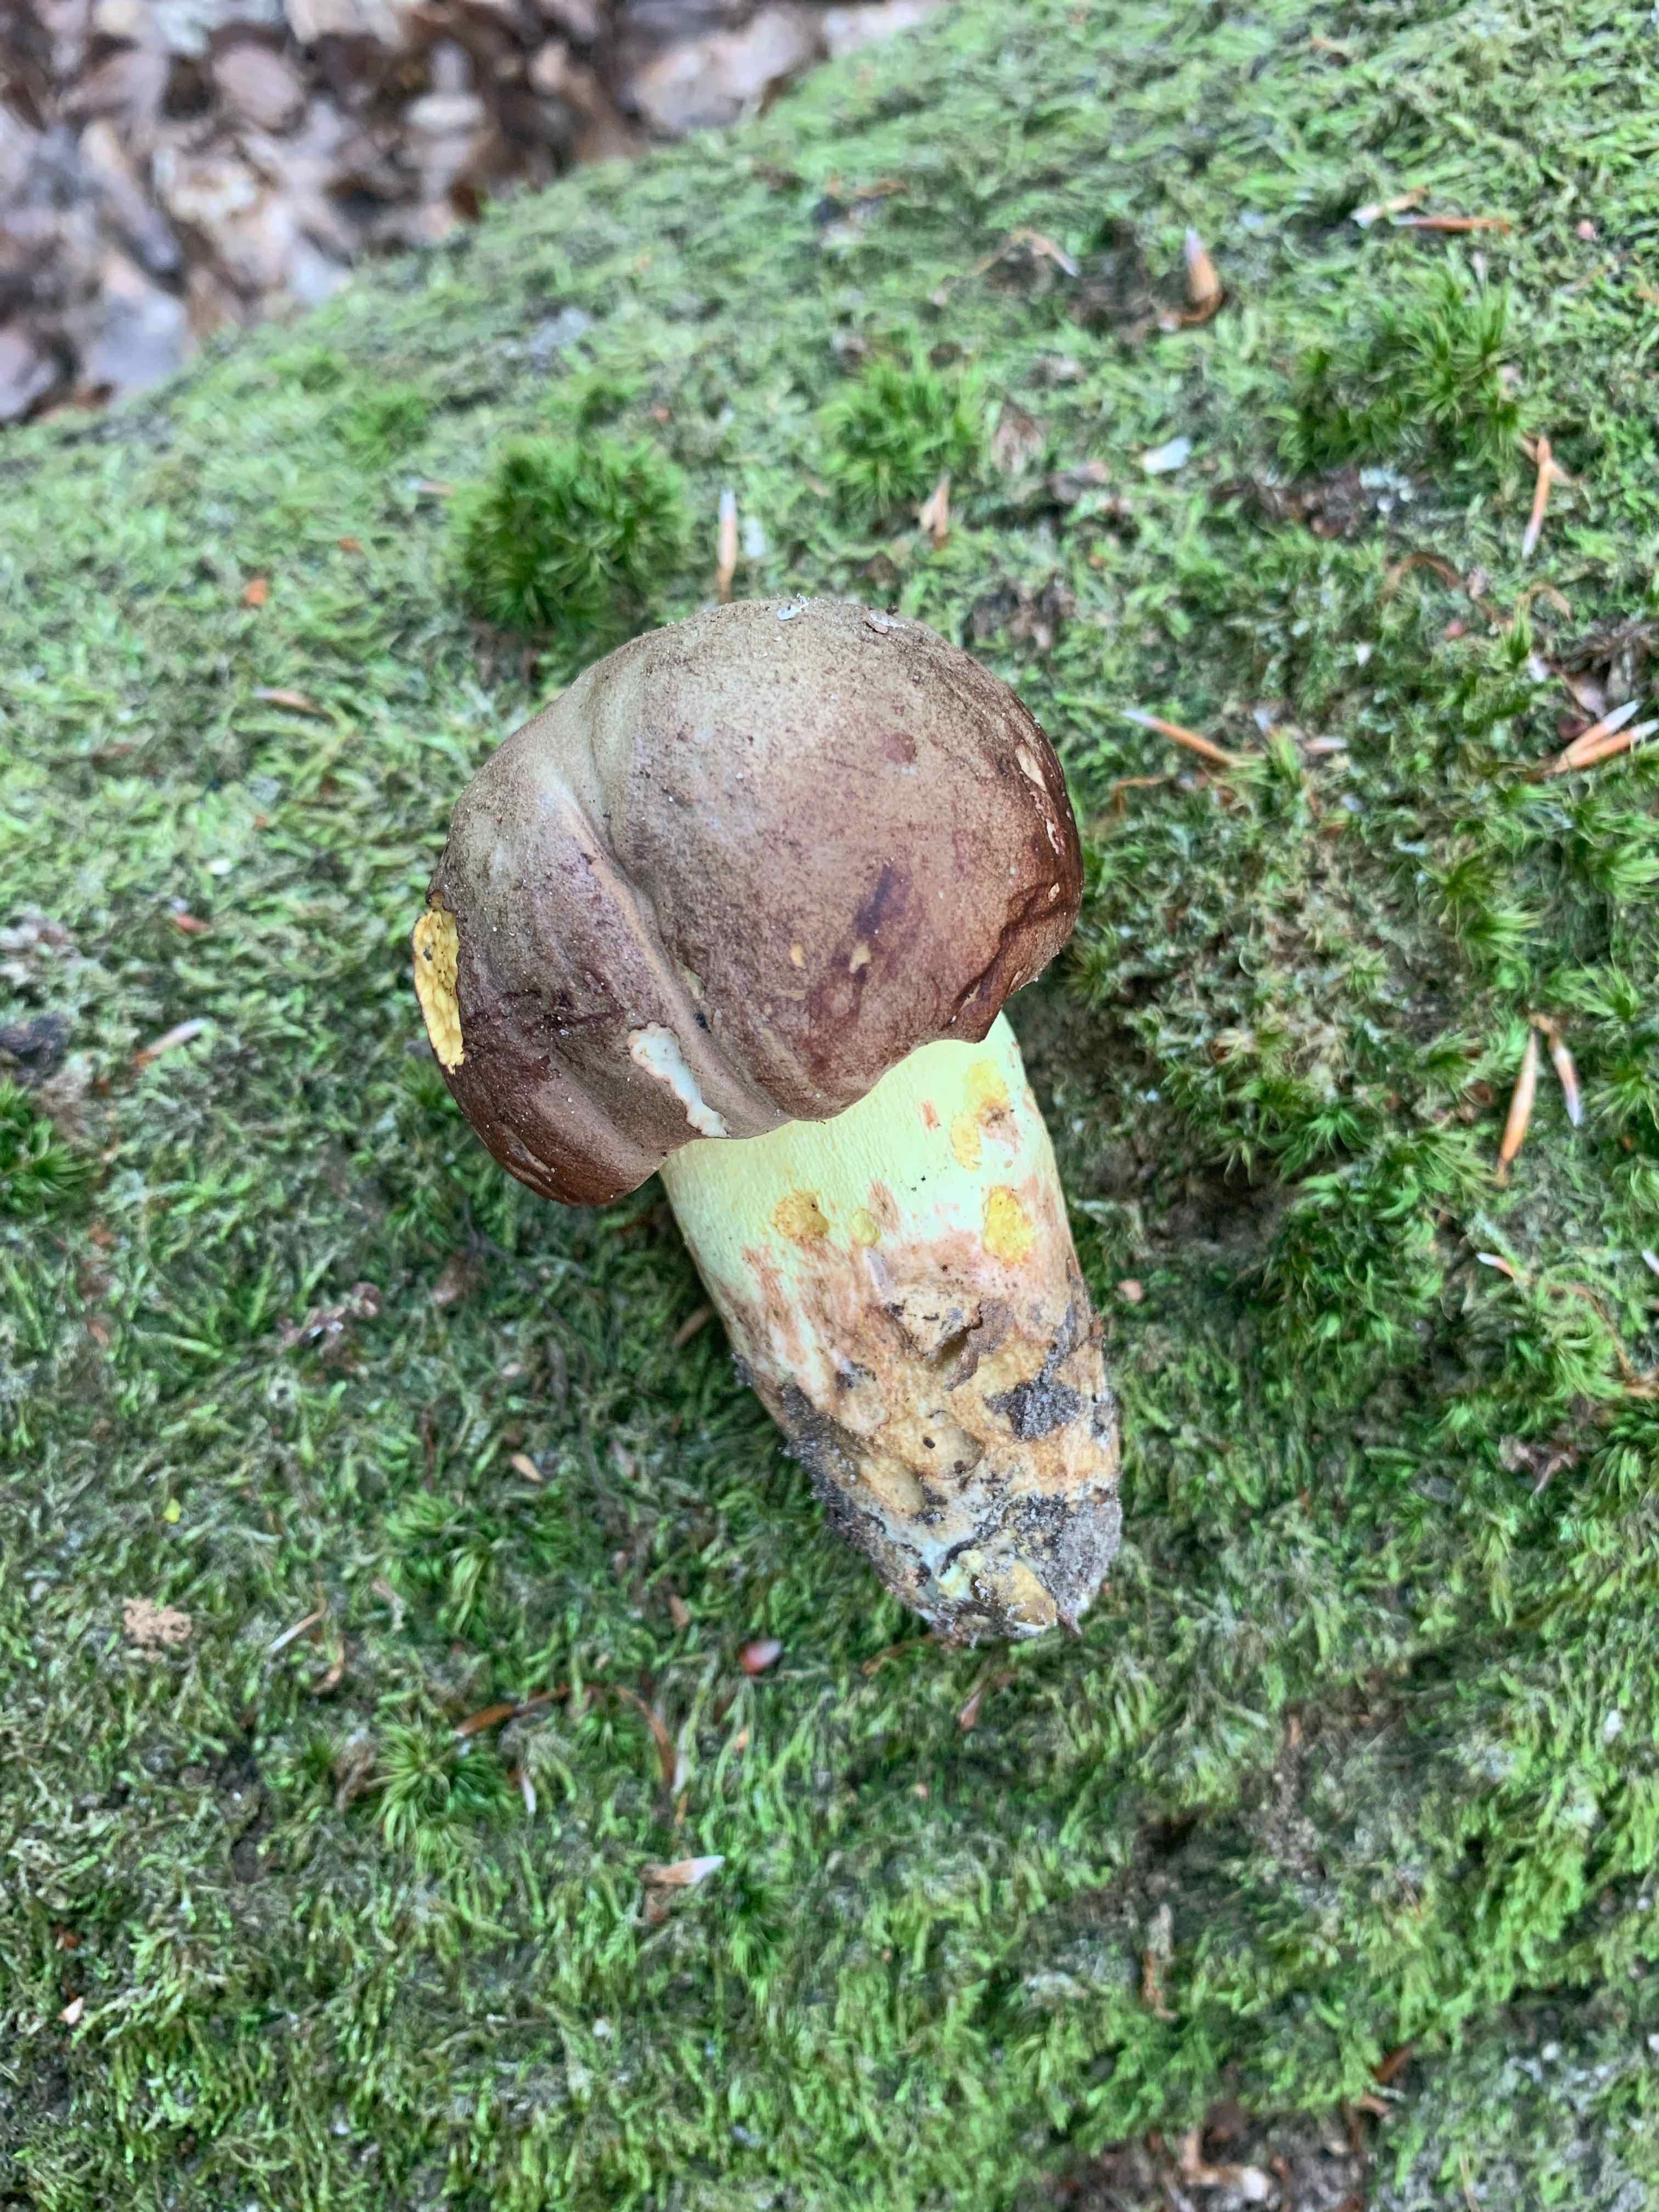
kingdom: Fungi
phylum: Basidiomycota
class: Agaricomycetes
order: Boletales
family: Boletaceae
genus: Butyriboletus
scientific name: Butyriboletus
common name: smørrørhat
